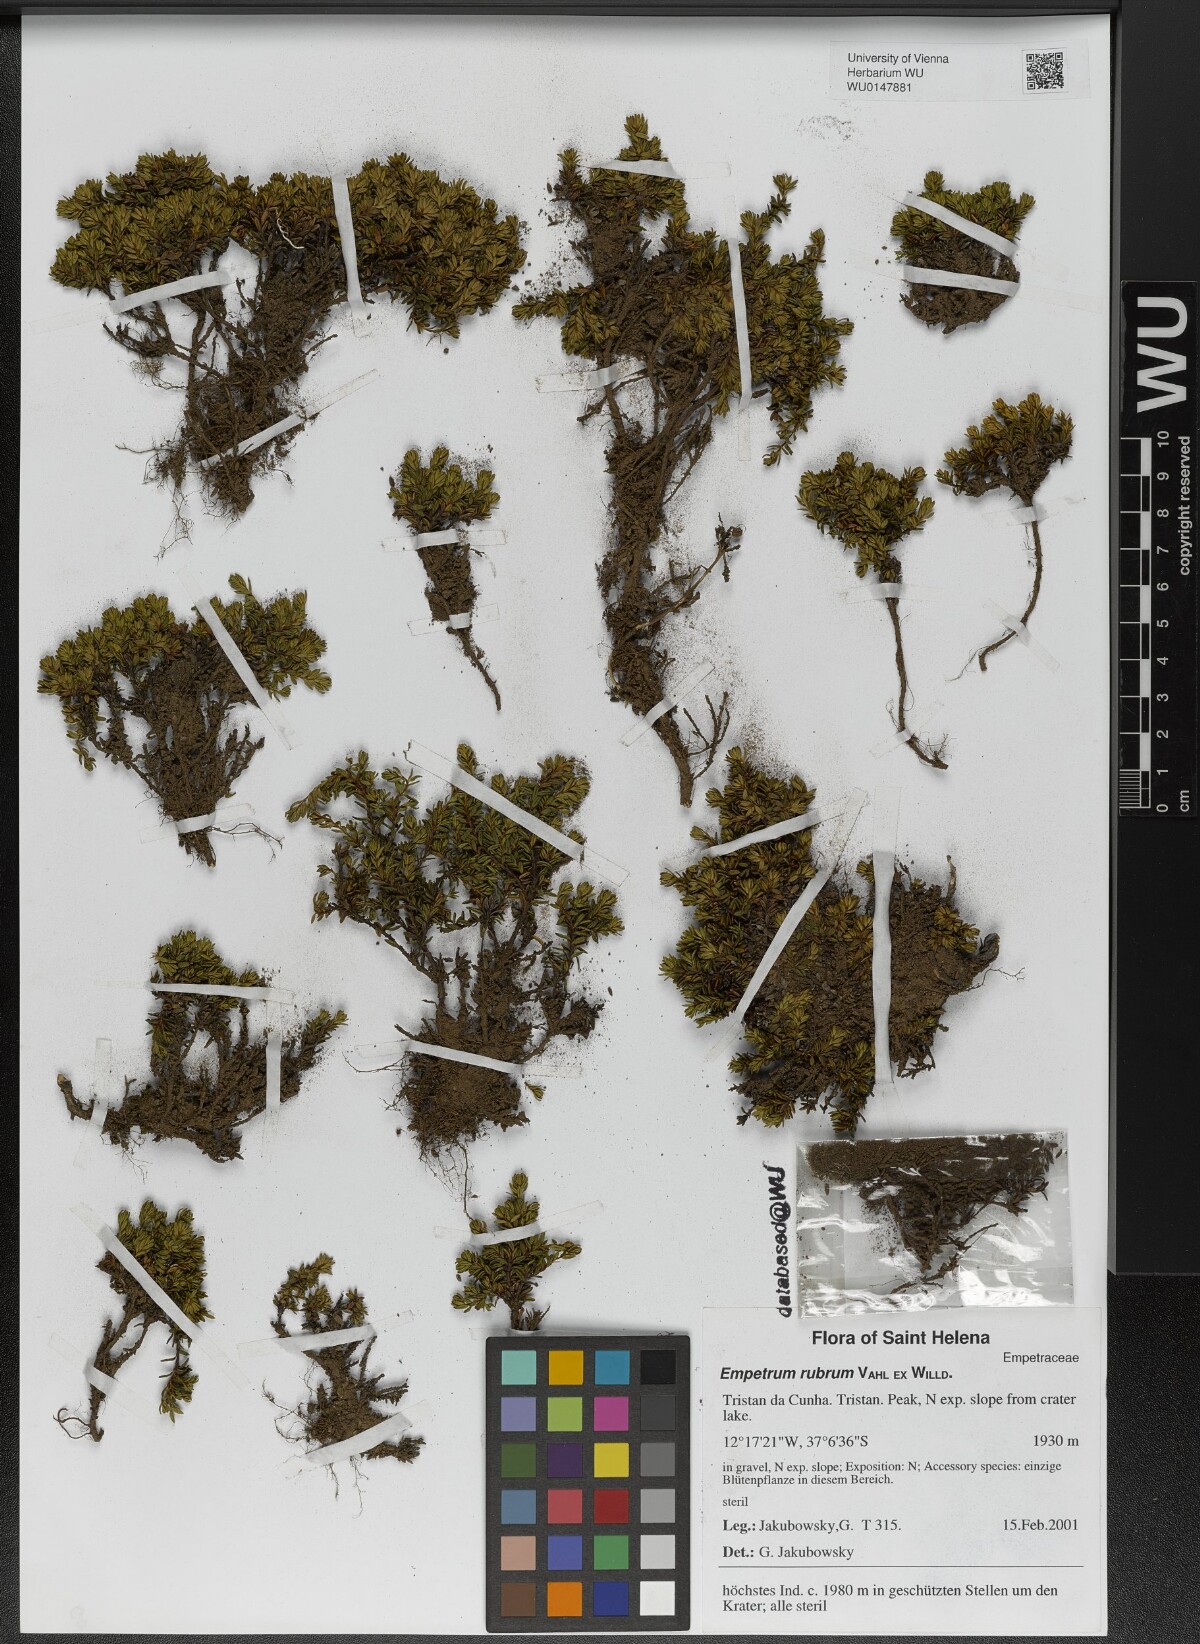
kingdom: Plantae
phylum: Tracheophyta
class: Magnoliopsida
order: Ericales
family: Ericaceae
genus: Empetrum
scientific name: Empetrum rubrum
